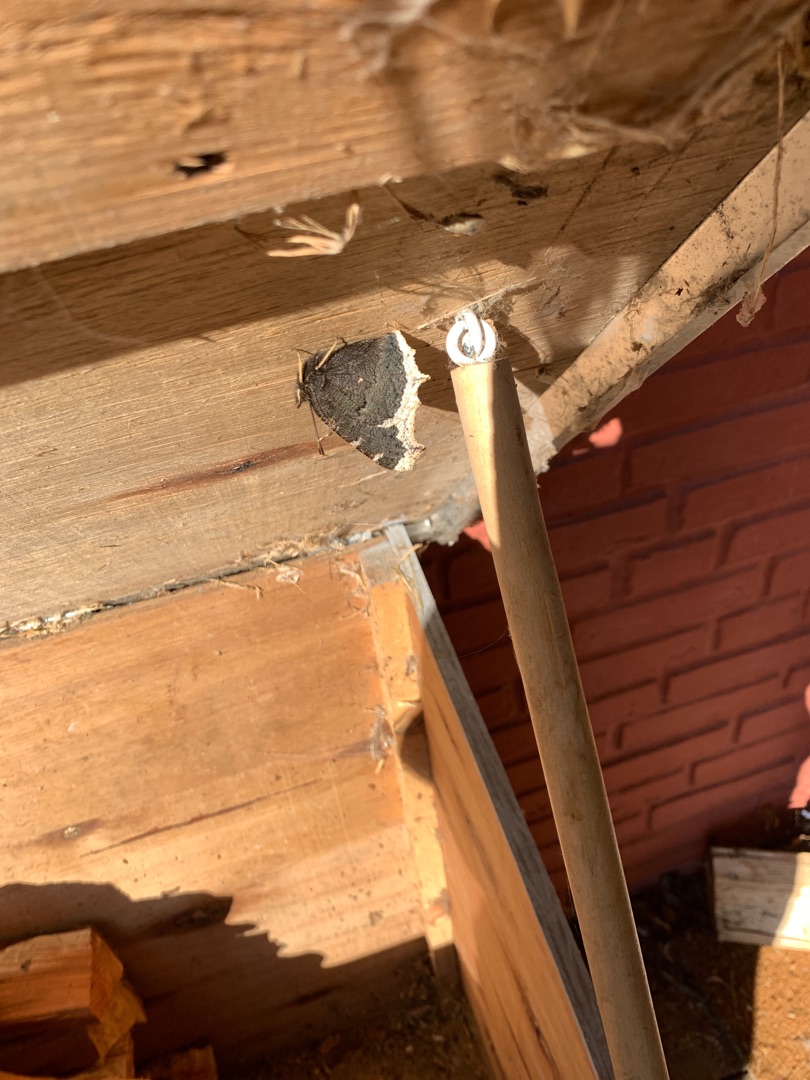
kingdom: Animalia
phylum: Arthropoda
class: Insecta
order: Lepidoptera
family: Nymphalidae
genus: Nymphalis
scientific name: Nymphalis antiopa
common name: Sørgekåbe
